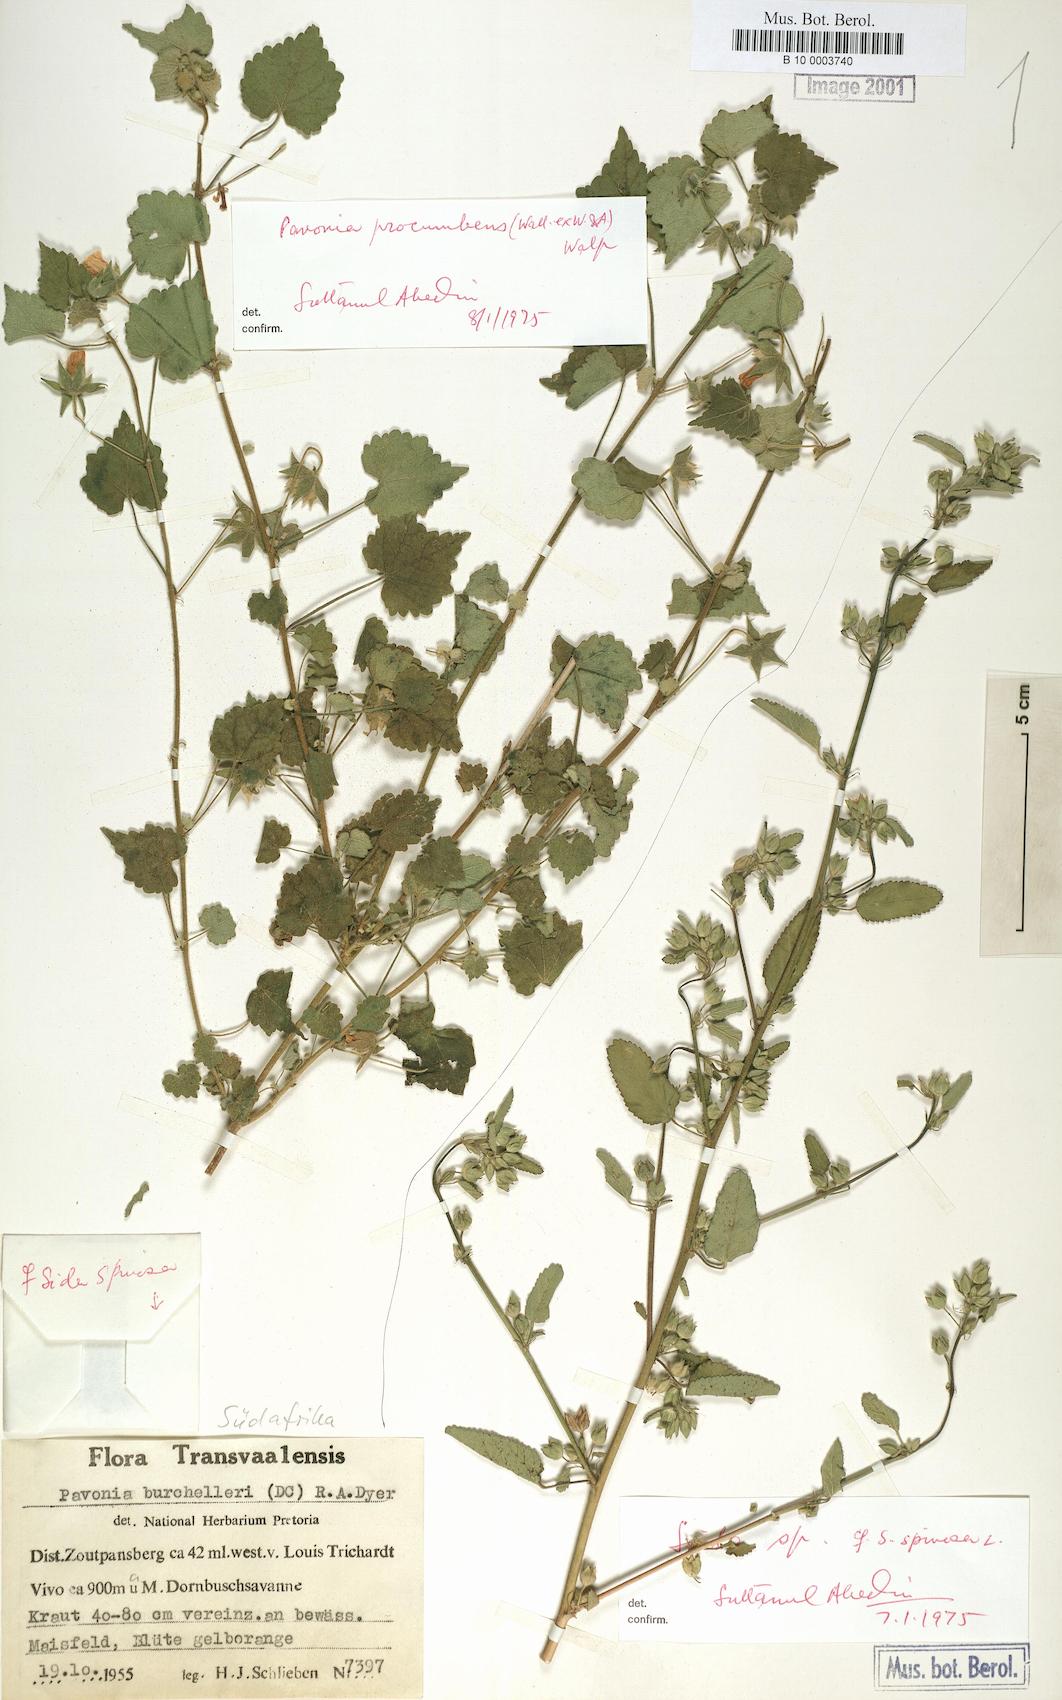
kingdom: Plantae
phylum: Tracheophyta
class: Magnoliopsida
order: Malvales
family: Malvaceae
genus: Pavonia
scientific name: Pavonia procumbens
